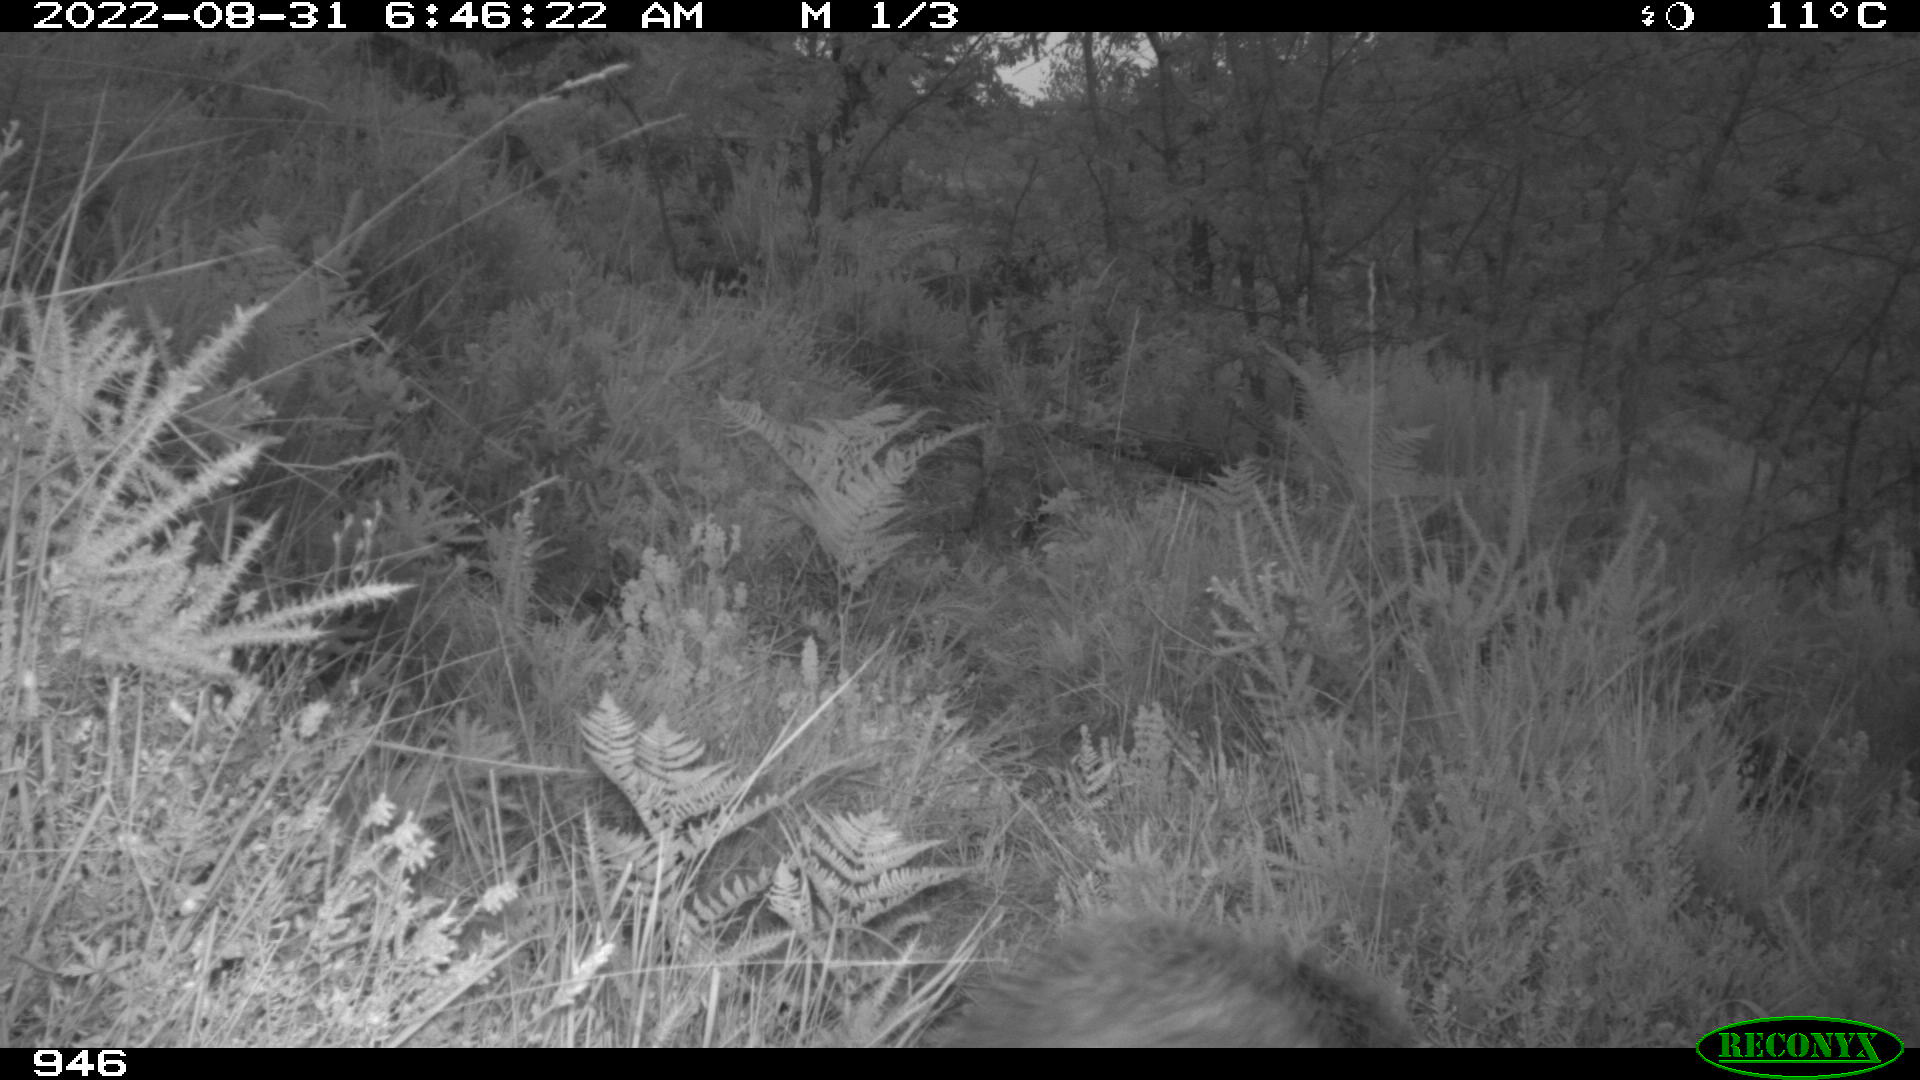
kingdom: Animalia
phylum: Chordata
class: Mammalia
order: Artiodactyla
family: Suidae
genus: Sus
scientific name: Sus scrofa
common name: Wild boar
